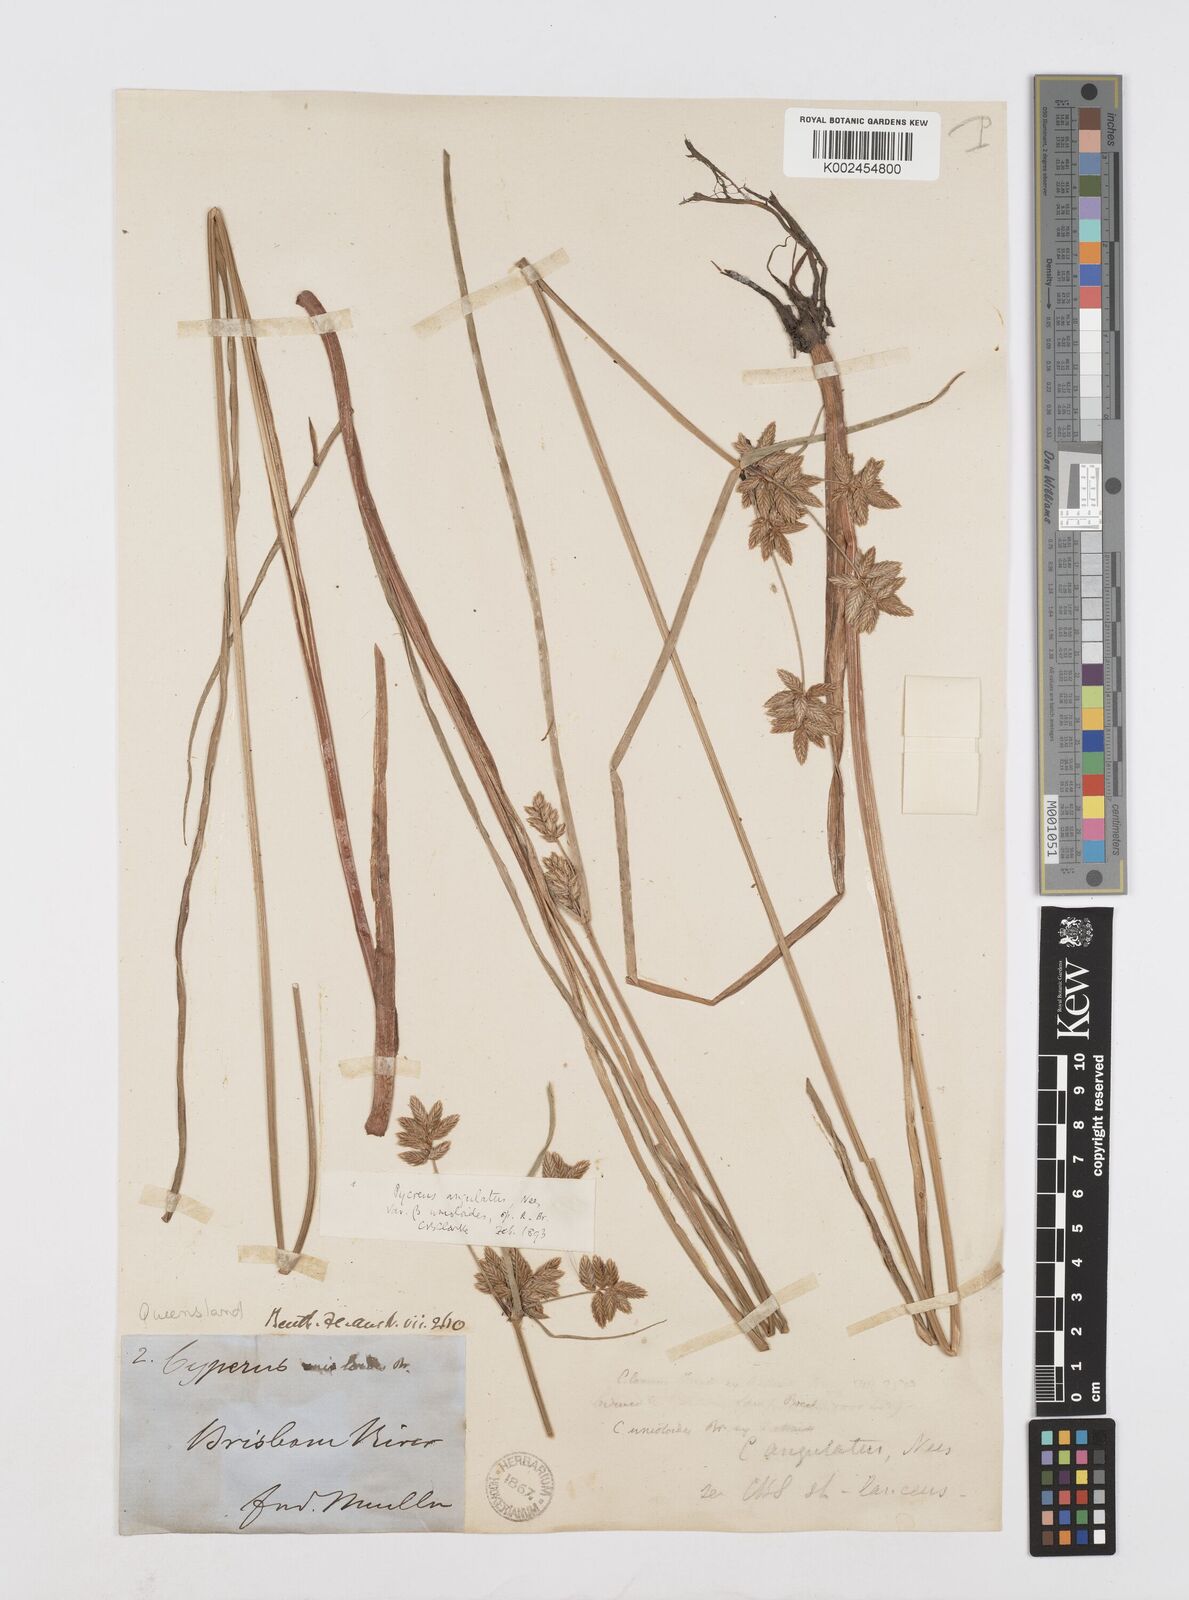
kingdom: Plantae
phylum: Tracheophyta
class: Liliopsida
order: Poales
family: Cyperaceae
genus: Cyperus
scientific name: Cyperus unioloides
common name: Uniola flatsedge
